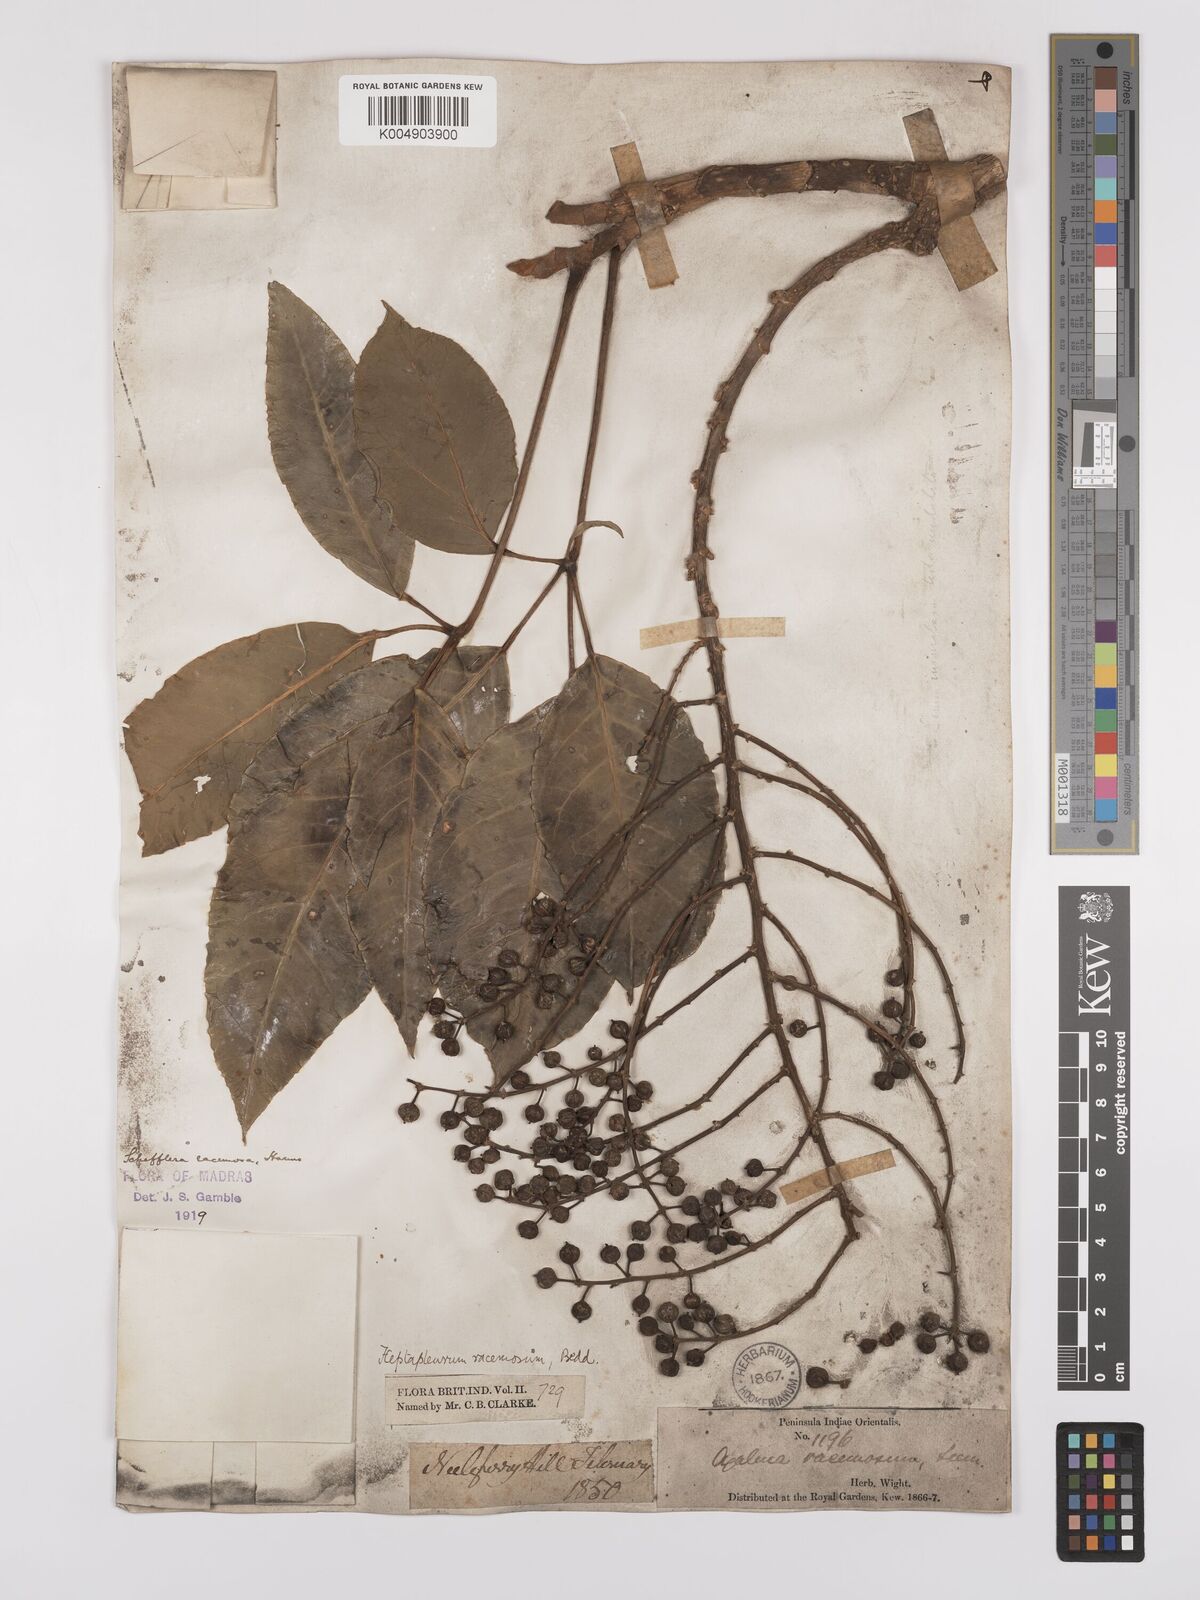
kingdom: Plantae
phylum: Tracheophyta
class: Magnoliopsida
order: Apiales
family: Araliaceae
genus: Heptapleurum
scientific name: Heptapleurum
